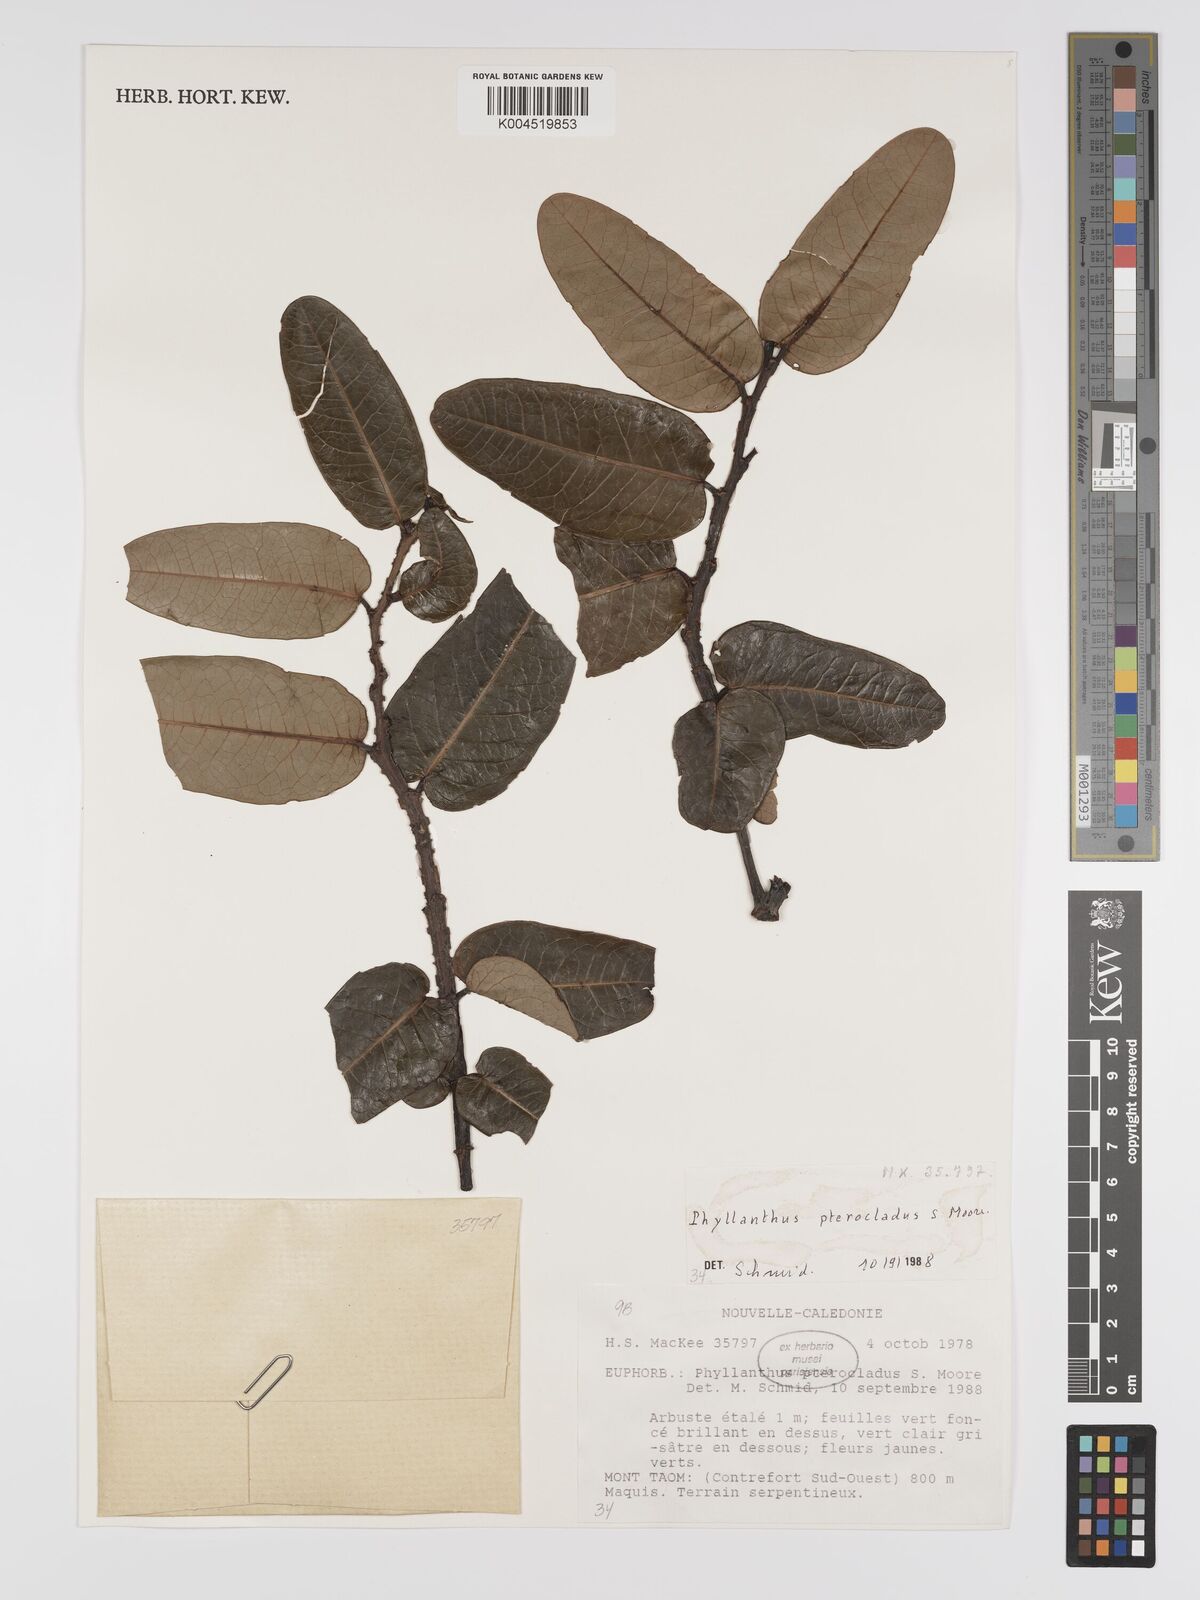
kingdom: Plantae
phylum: Tracheophyta
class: Magnoliopsida
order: Malpighiales
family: Phyllanthaceae
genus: Phyllanthus
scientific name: Phyllanthus pterocladus
